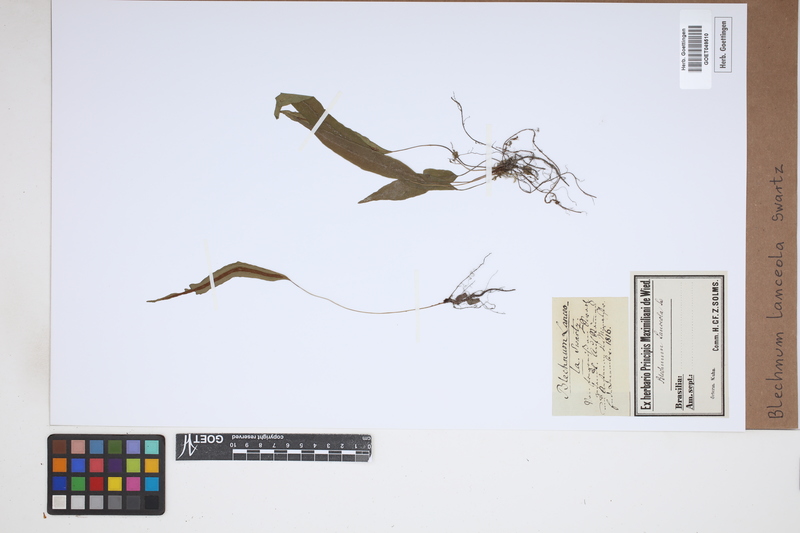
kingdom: Plantae
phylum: Tracheophyta
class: Polypodiopsida
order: Polypodiales
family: Blechnaceae
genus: Blechnum
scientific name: Blechnum lanceola
